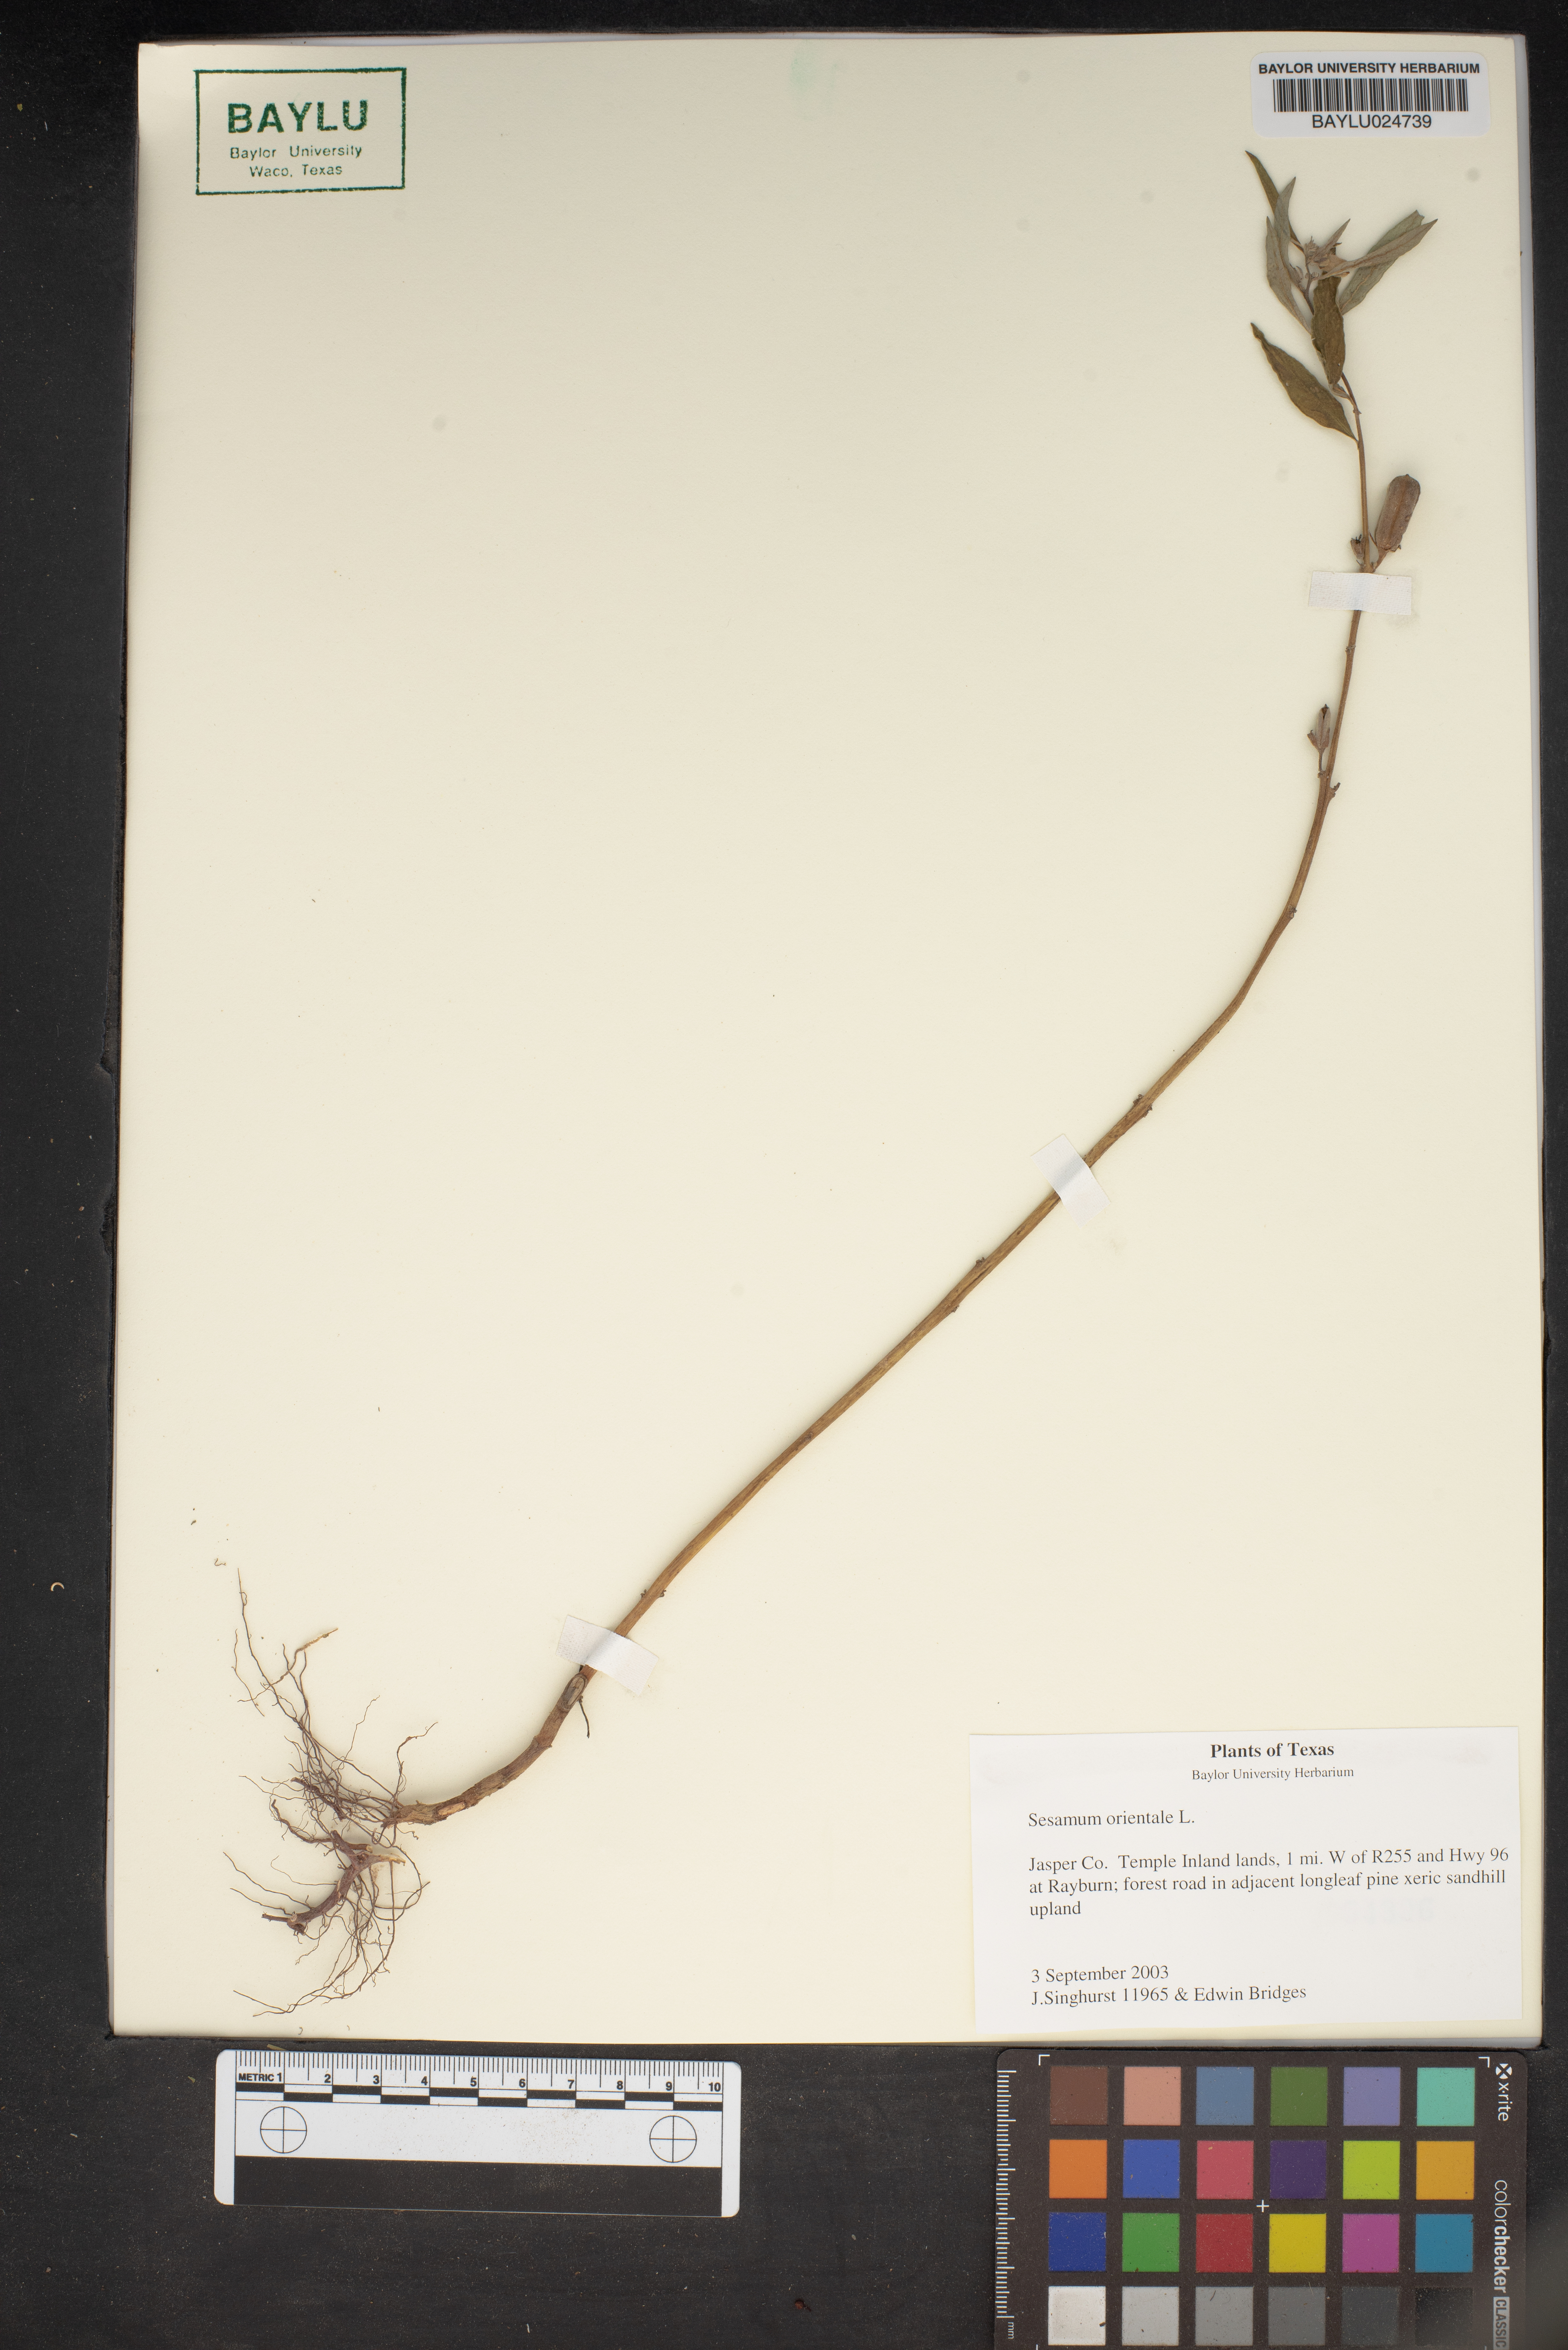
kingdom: Plantae
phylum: Tracheophyta
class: Magnoliopsida
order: Lamiales
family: Pedaliaceae
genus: Sesamum
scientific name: Sesamum orientale
